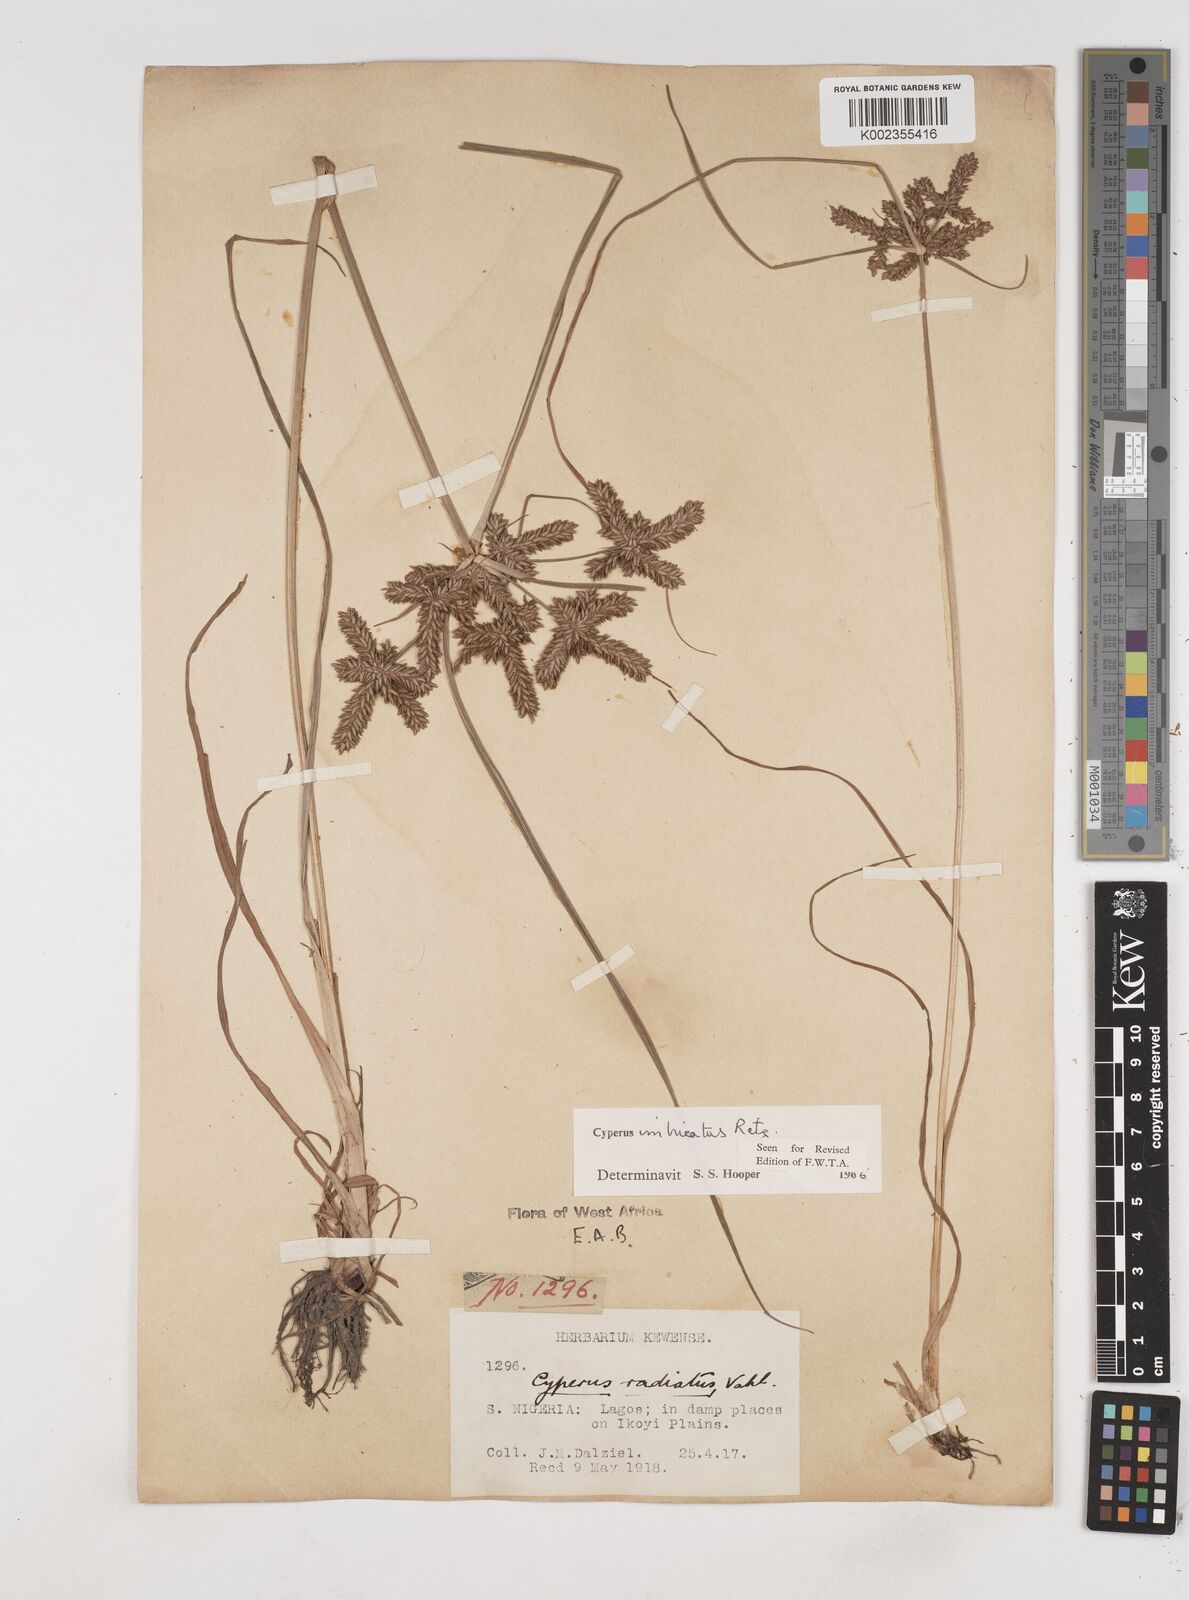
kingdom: Plantae
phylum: Tracheophyta
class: Liliopsida
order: Poales
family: Cyperaceae
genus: Cyperus
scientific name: Cyperus imbricatus
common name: Shingle flatsedge
